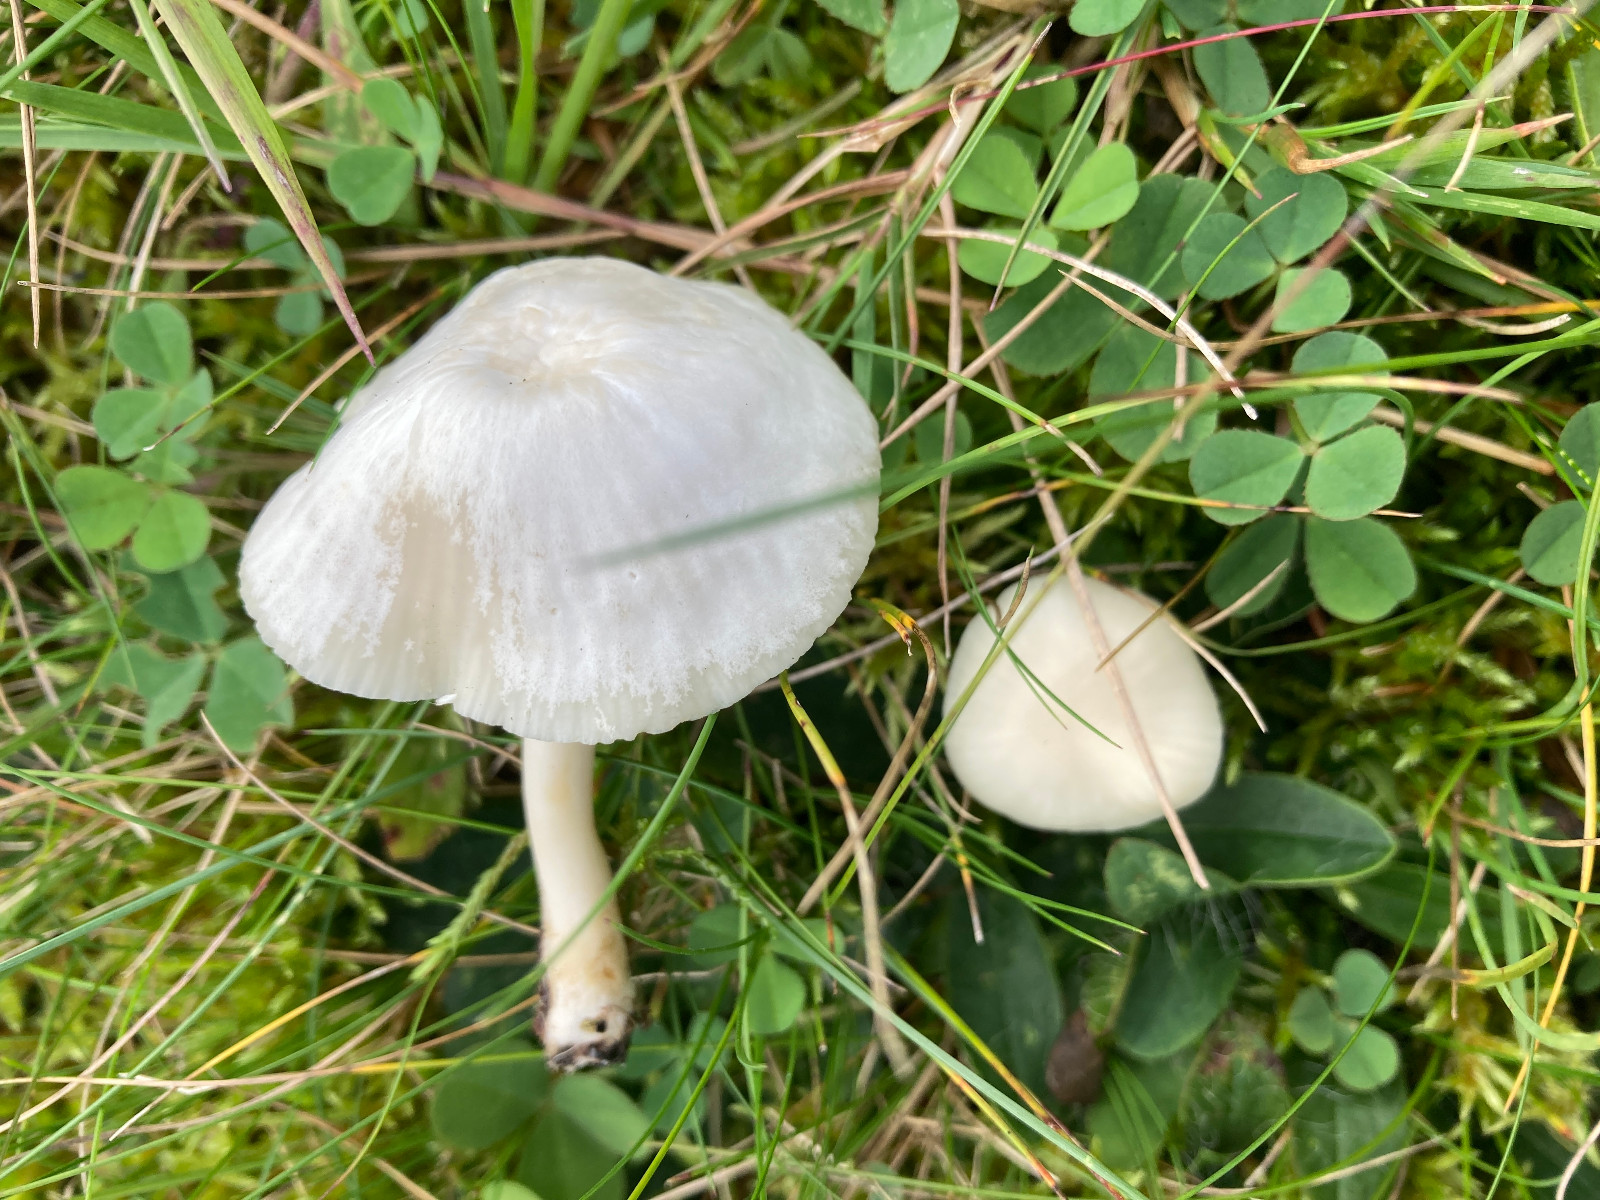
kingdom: Fungi
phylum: Basidiomycota
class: Agaricomycetes
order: Agaricales
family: Hygrophoraceae
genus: Cuphophyllus
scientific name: Cuphophyllus virgineus
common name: snehvid vokshat
